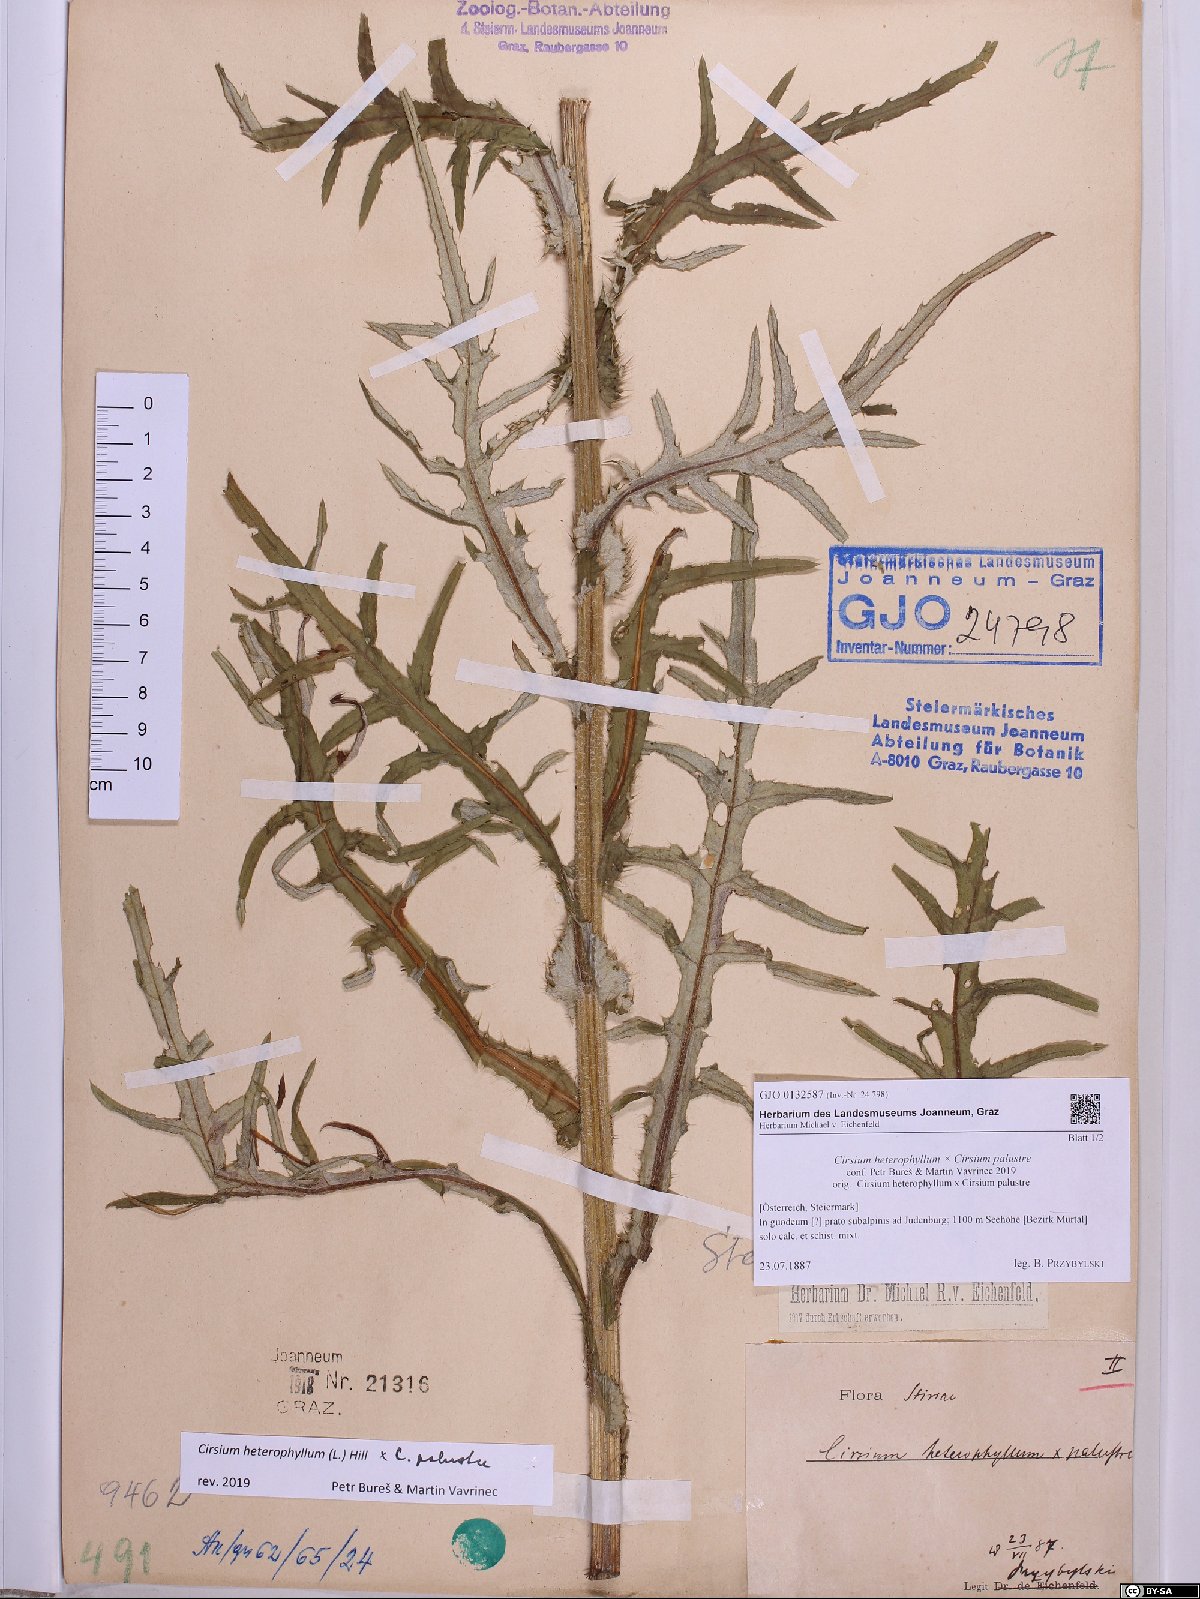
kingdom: Plantae
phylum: Tracheophyta
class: Magnoliopsida
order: Asterales
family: Asteraceae
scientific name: Asteraceae
